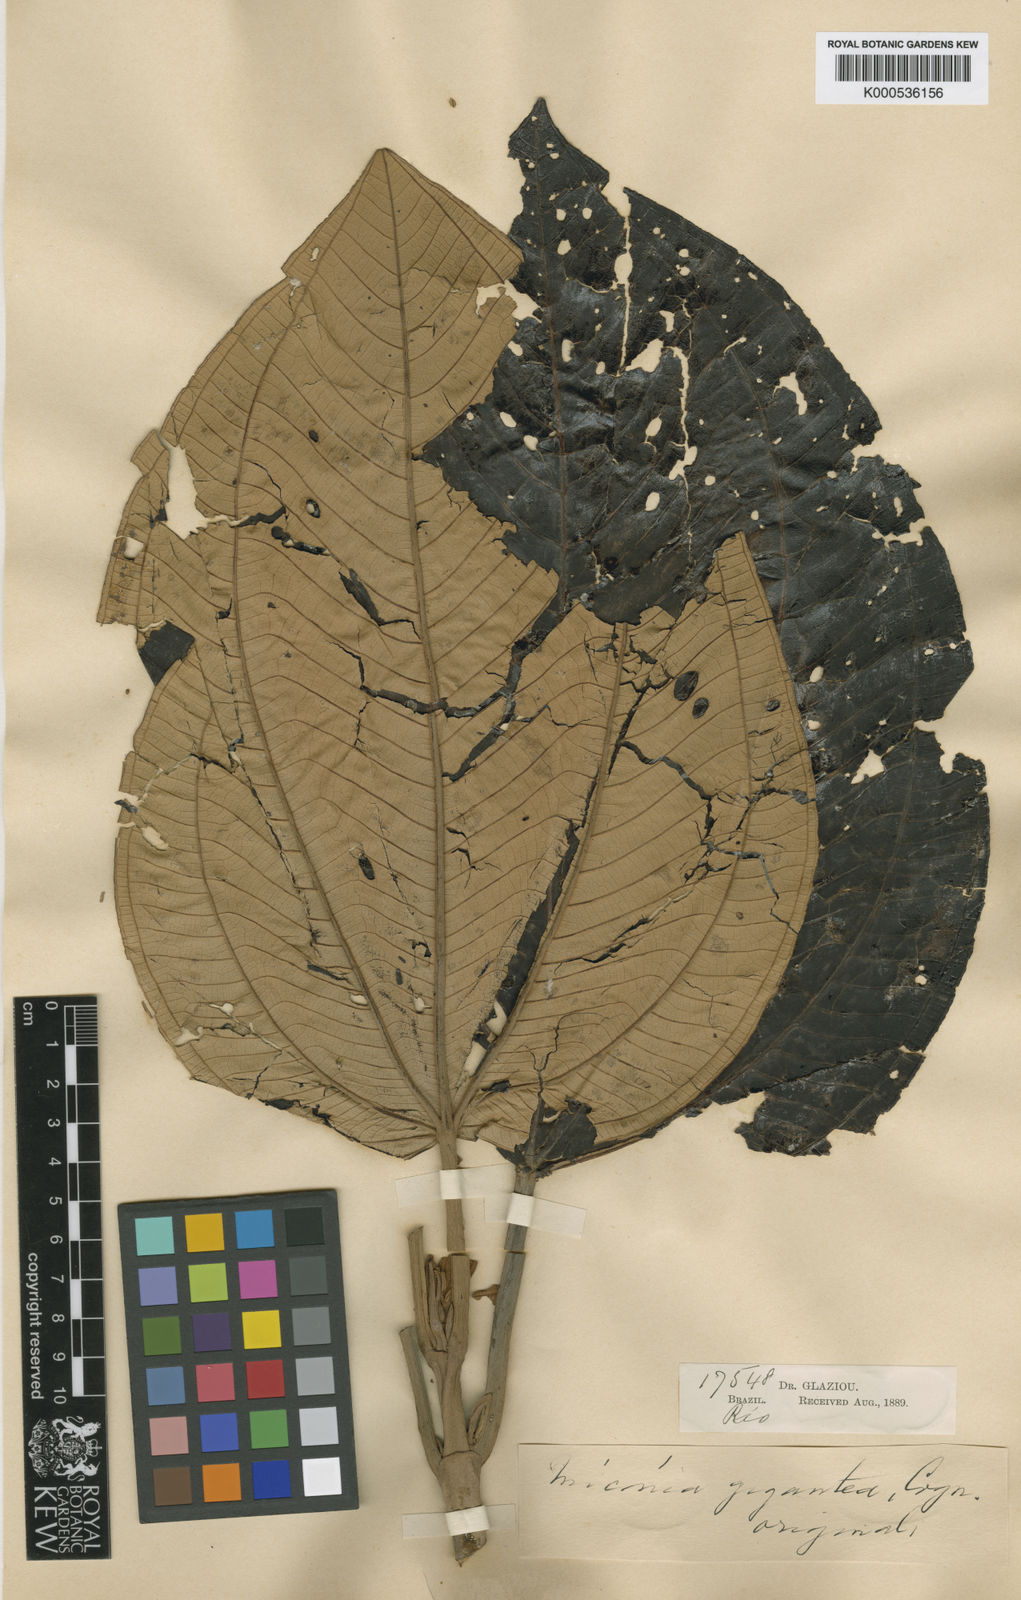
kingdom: Plantae
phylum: Tracheophyta
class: Magnoliopsida
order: Myrtales
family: Melastomataceae
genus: Miconia
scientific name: Miconia formosa
